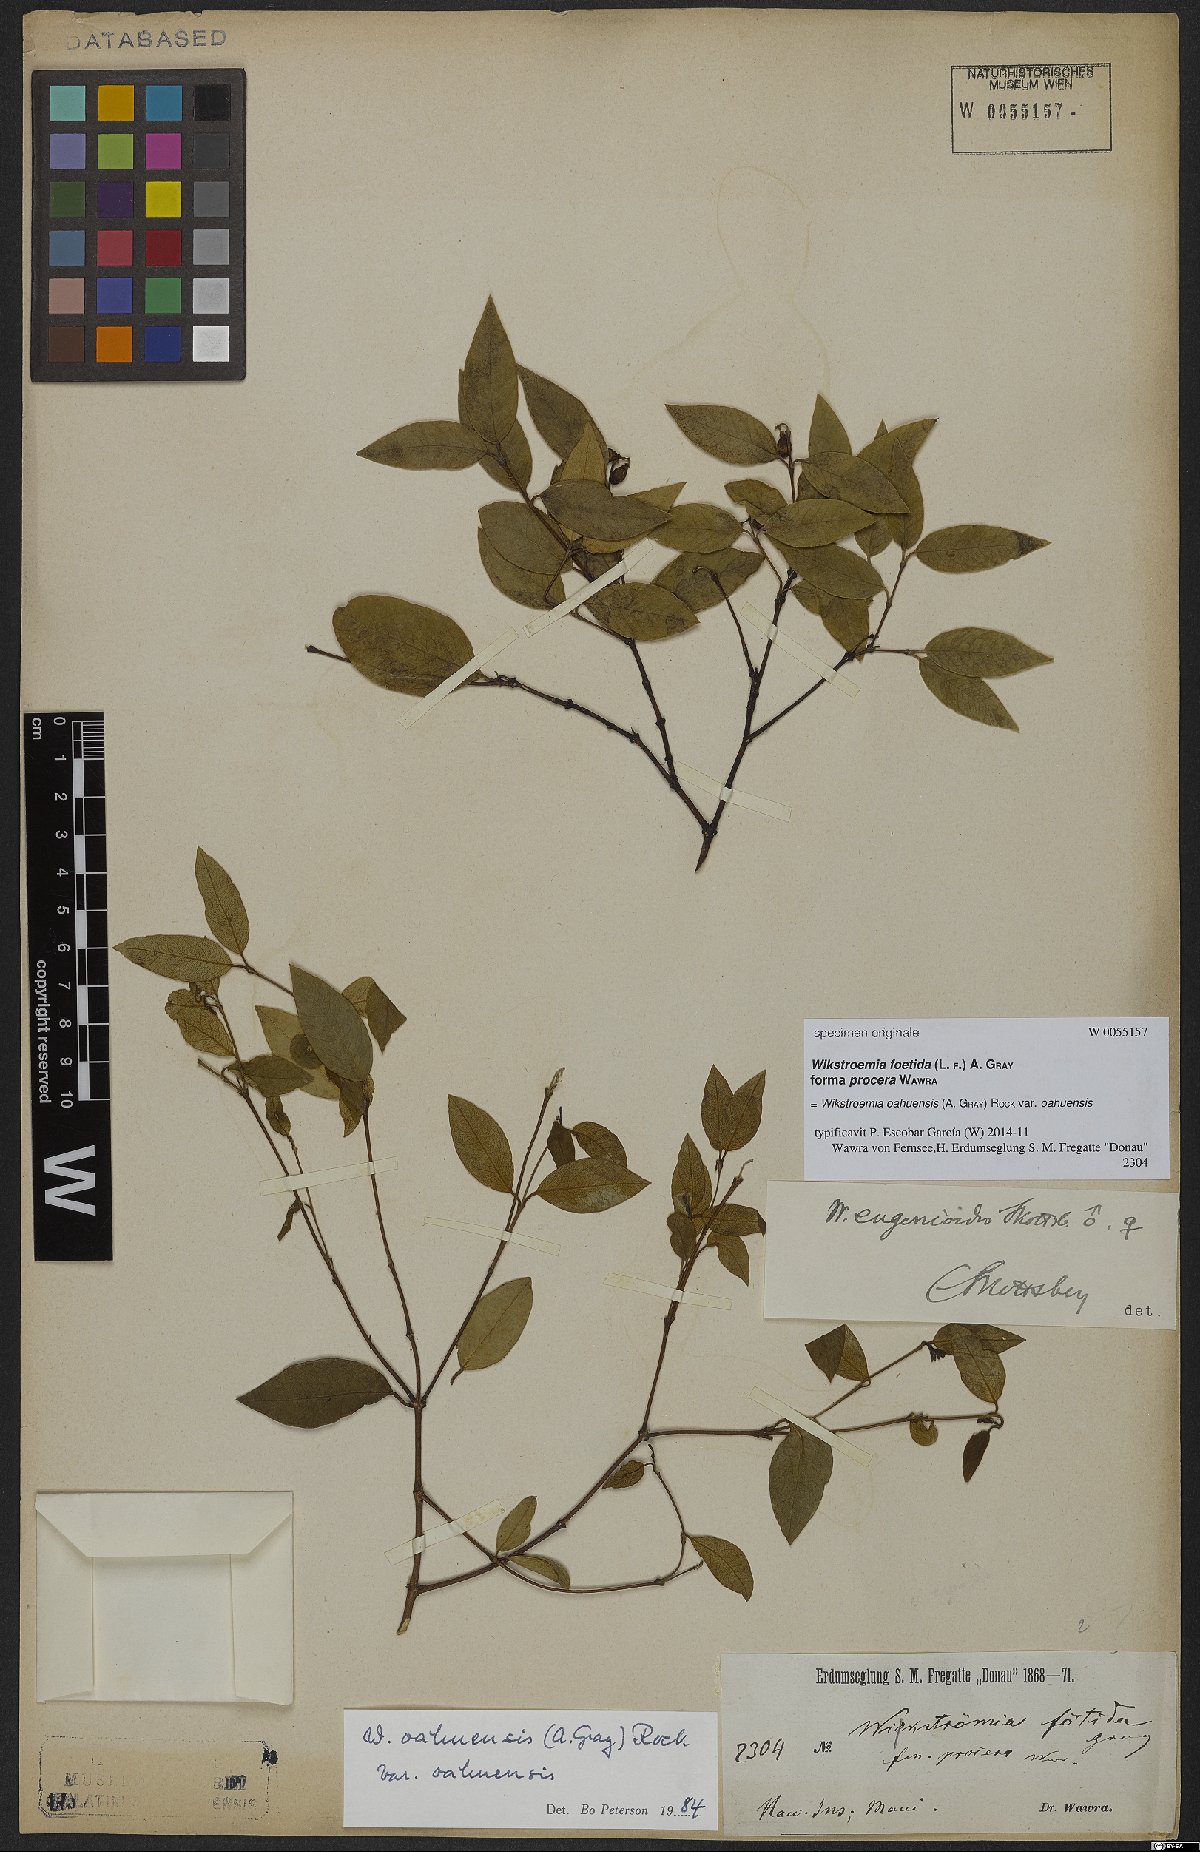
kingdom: Plantae
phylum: Tracheophyta
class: Magnoliopsida
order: Malvales
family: Thymelaeaceae
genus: Wikstroemia
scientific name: Wikstroemia oahuensis
